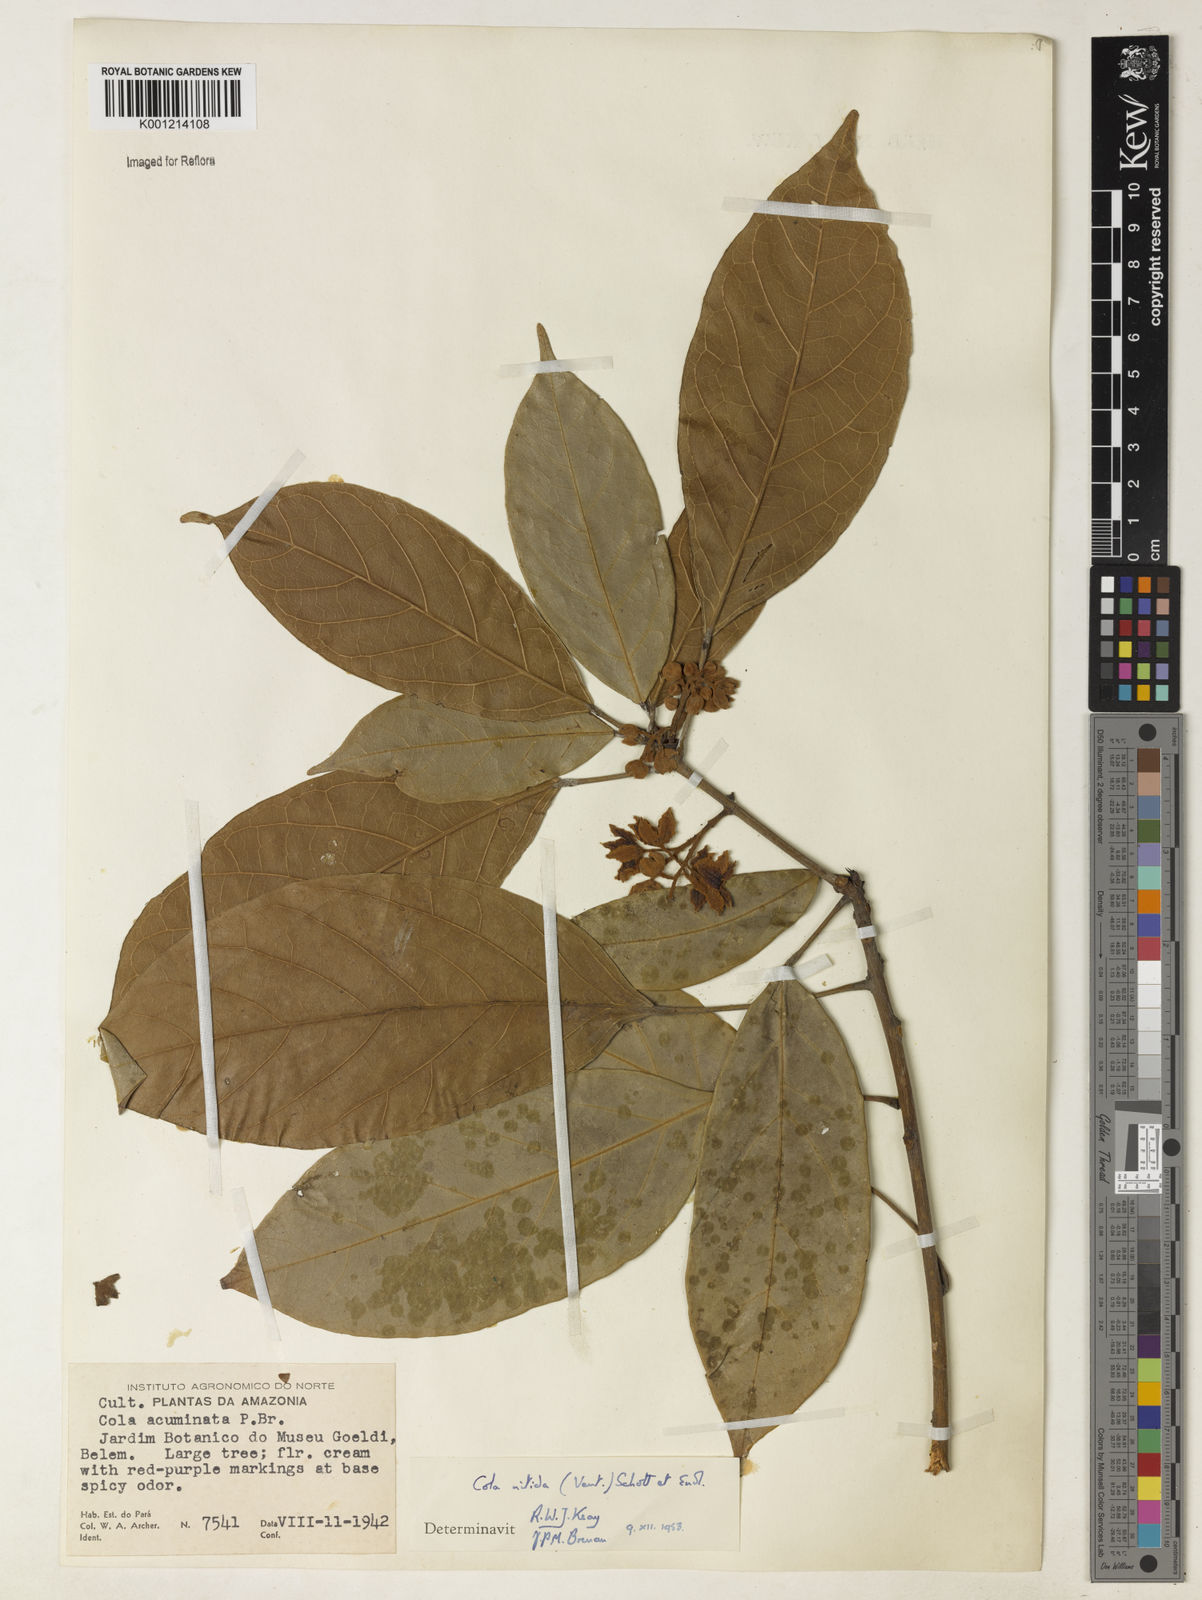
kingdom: Plantae
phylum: Tracheophyta
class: Magnoliopsida
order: Malvales
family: Malvaceae
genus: Cola
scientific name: Cola nitida
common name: Kola nut
